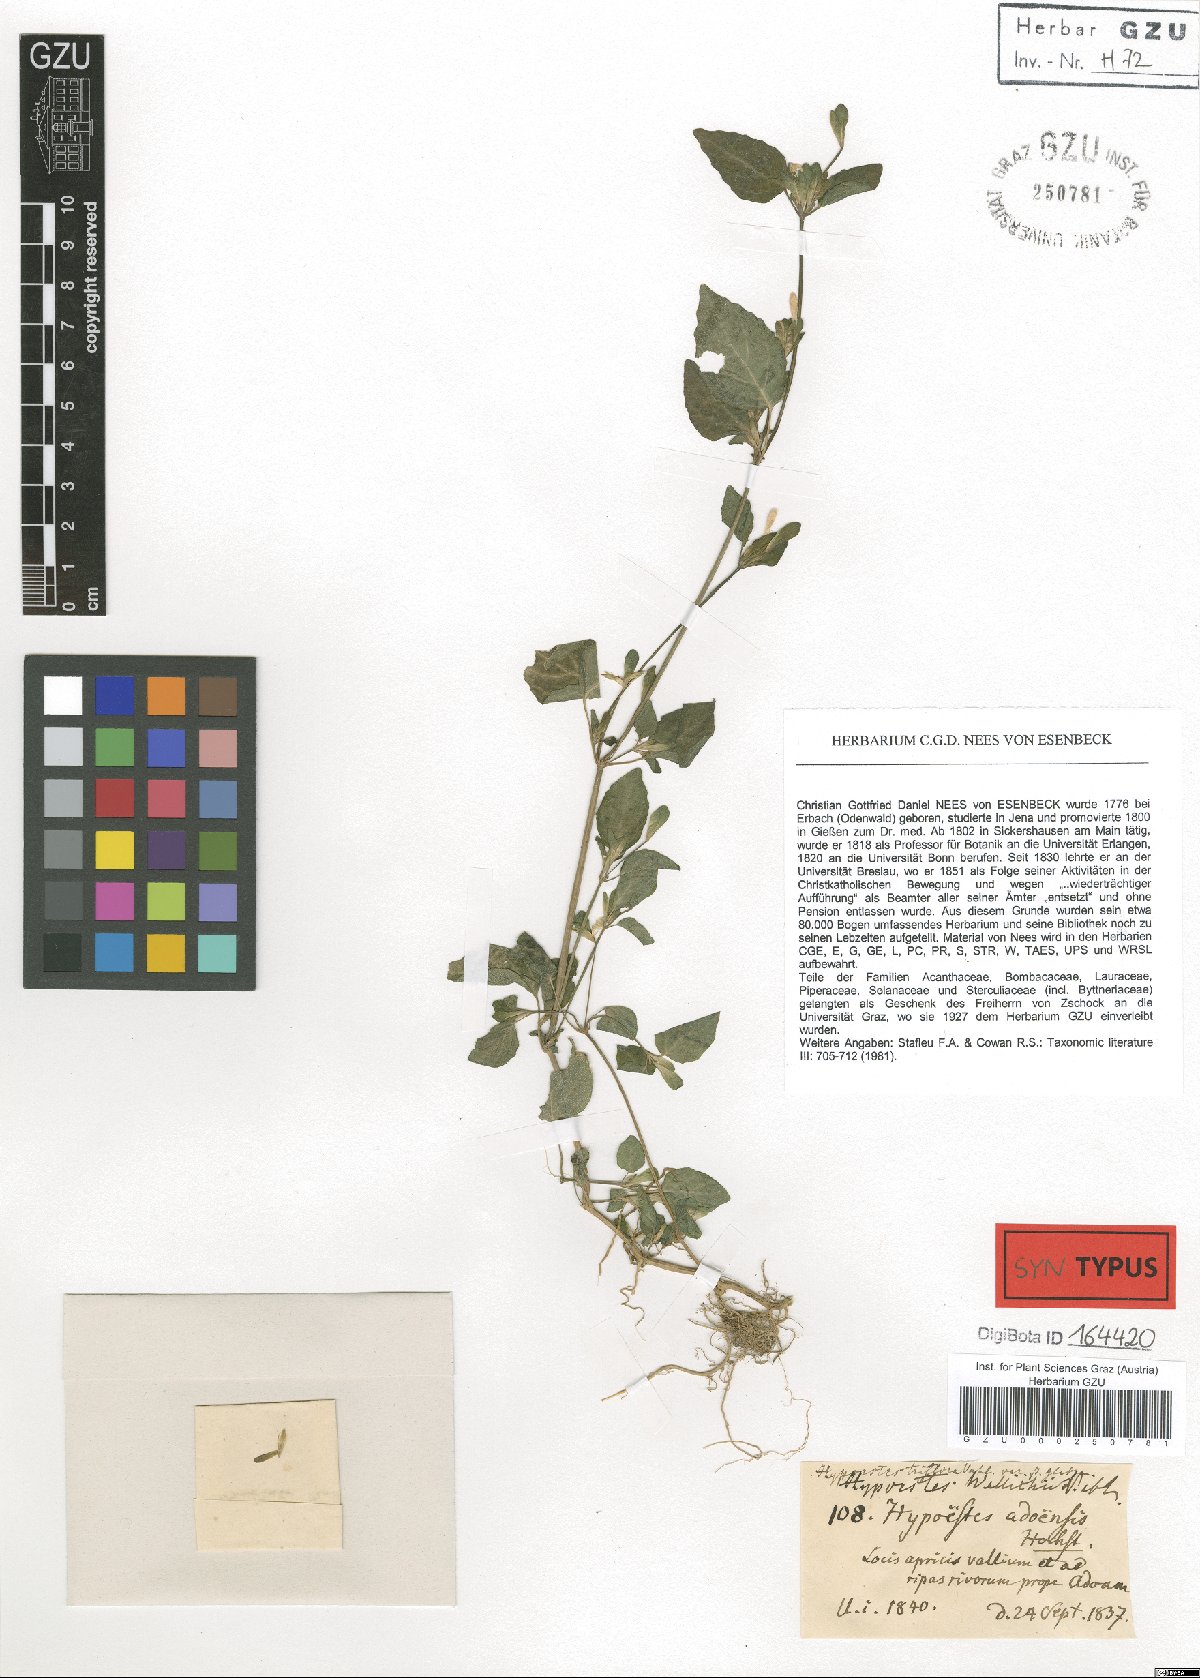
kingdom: Plantae
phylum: Tracheophyta
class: Magnoliopsida
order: Lamiales
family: Acanthaceae
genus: Hypoestes
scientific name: Hypoestes triflora
